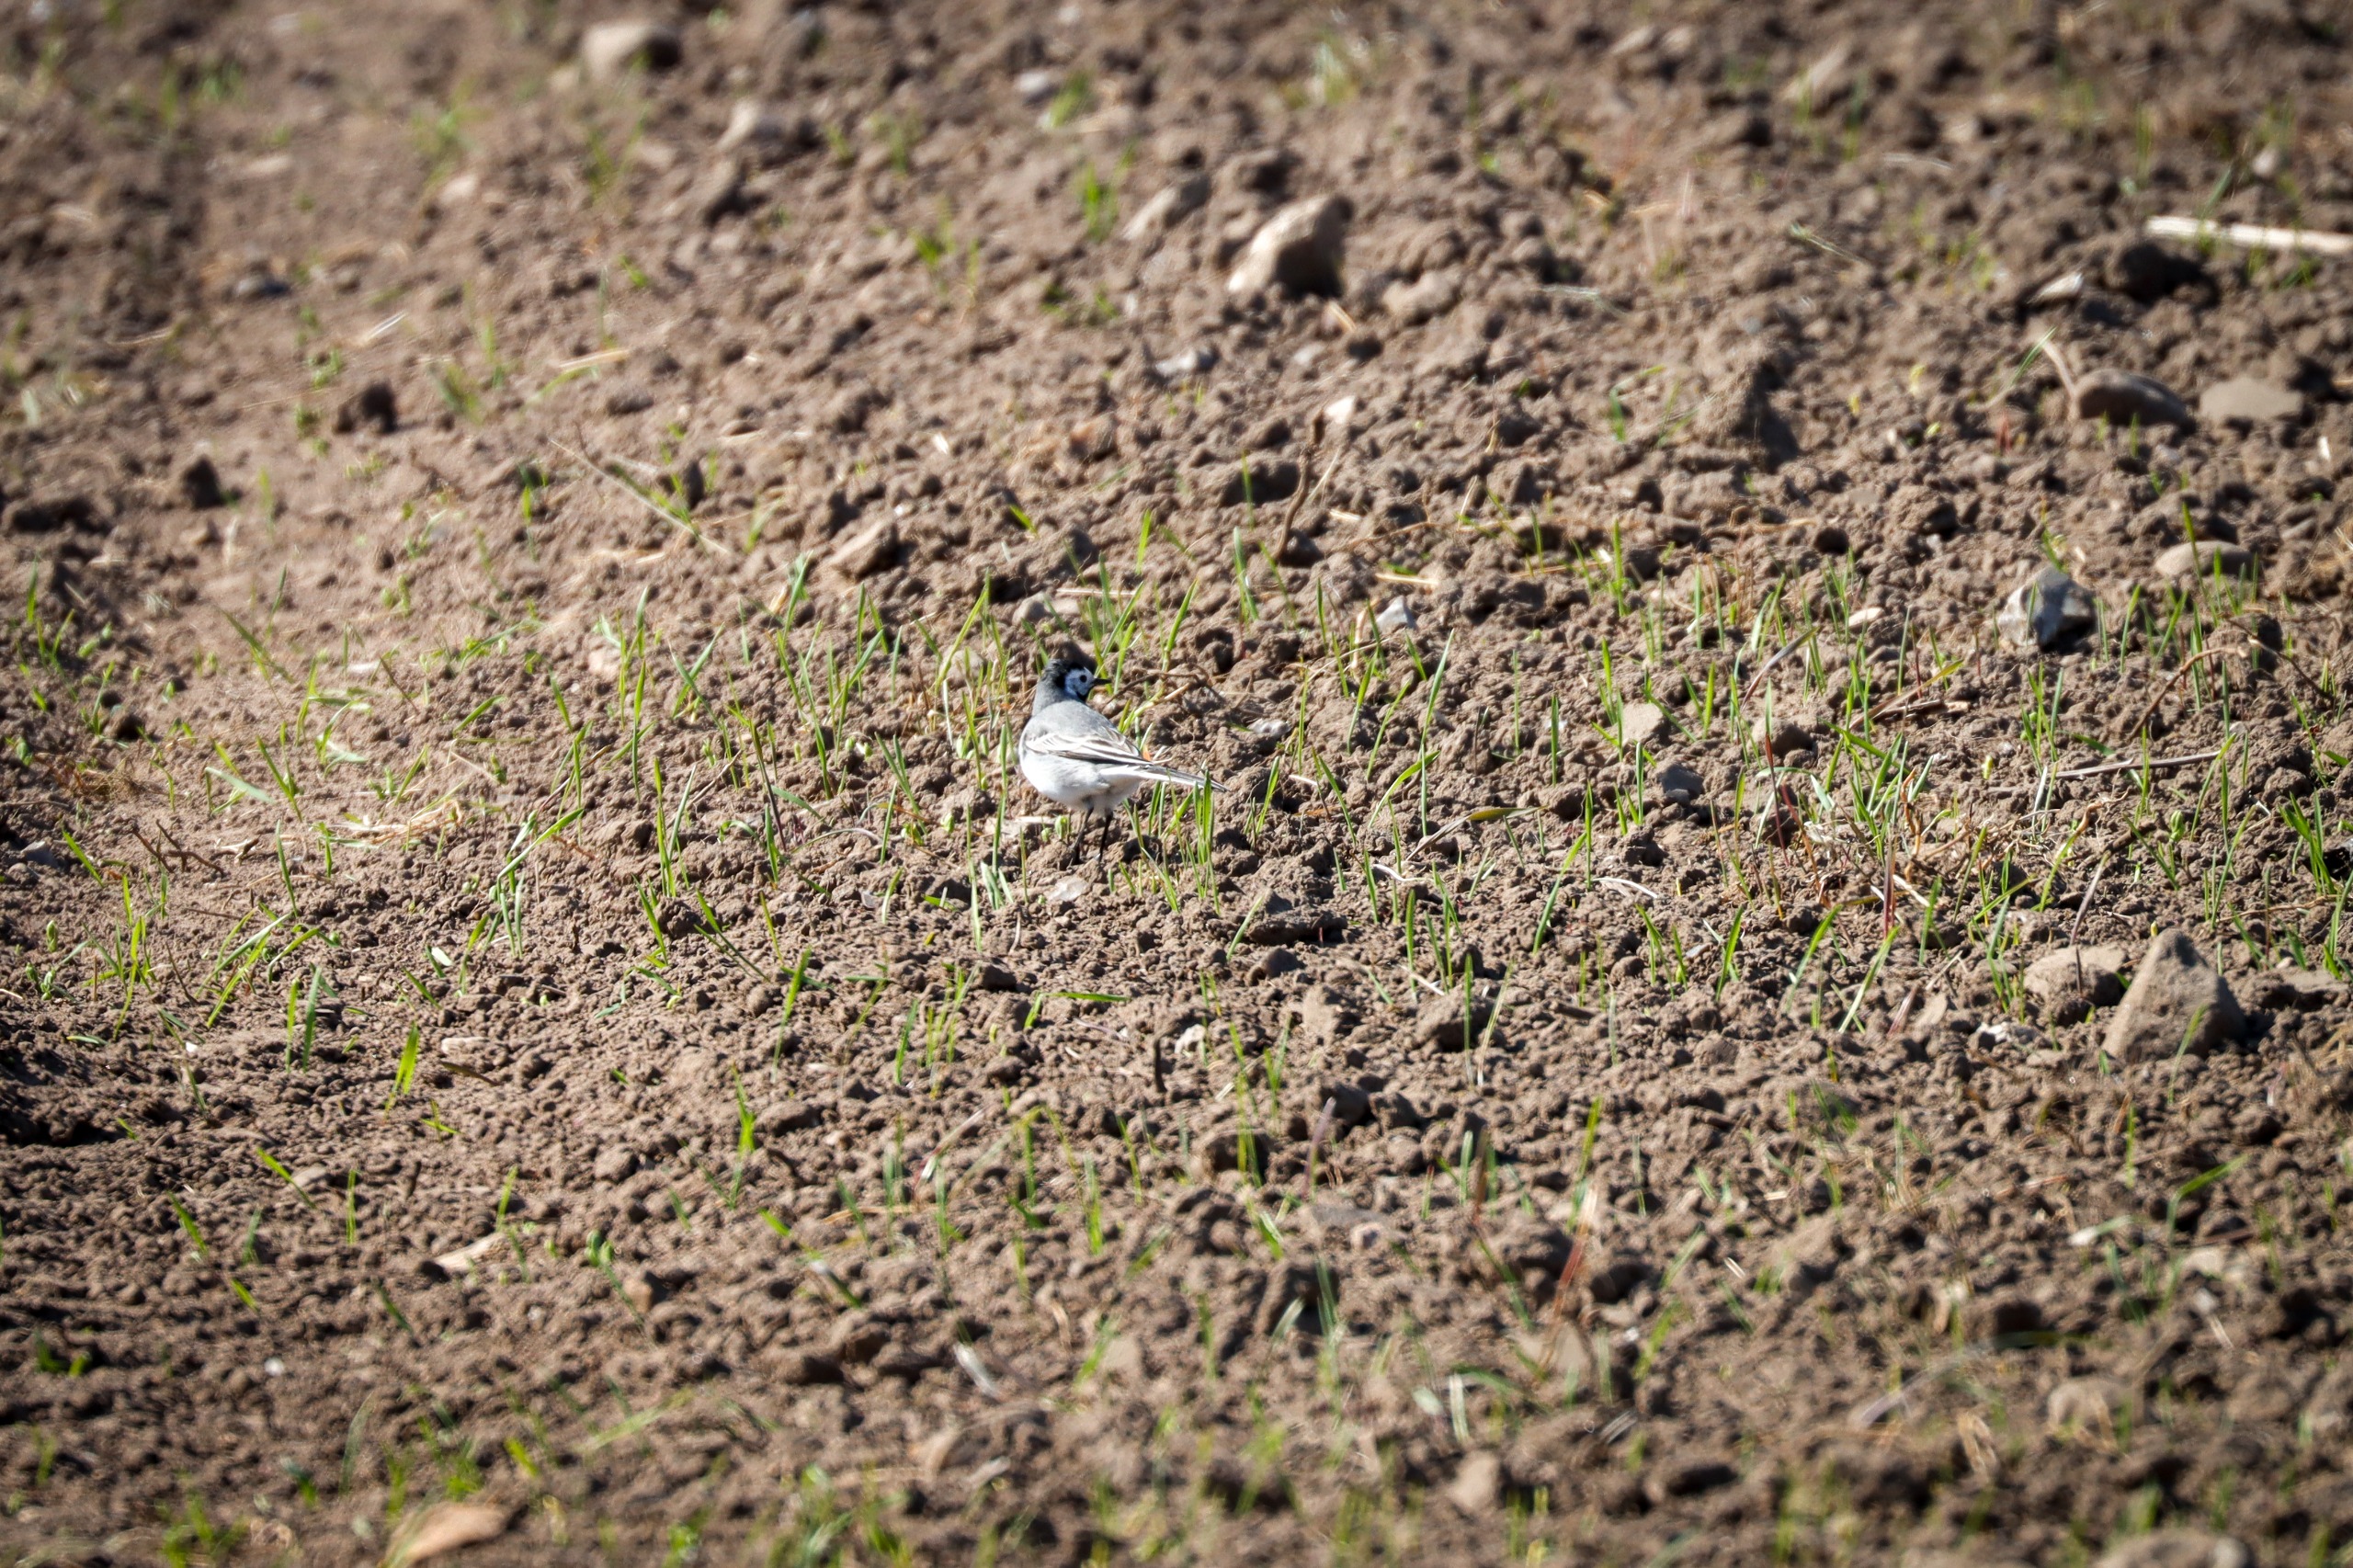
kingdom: Animalia
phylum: Chordata
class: Aves
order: Passeriformes
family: Motacillidae
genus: Motacilla
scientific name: Motacilla alba
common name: Hvid vipstjert
